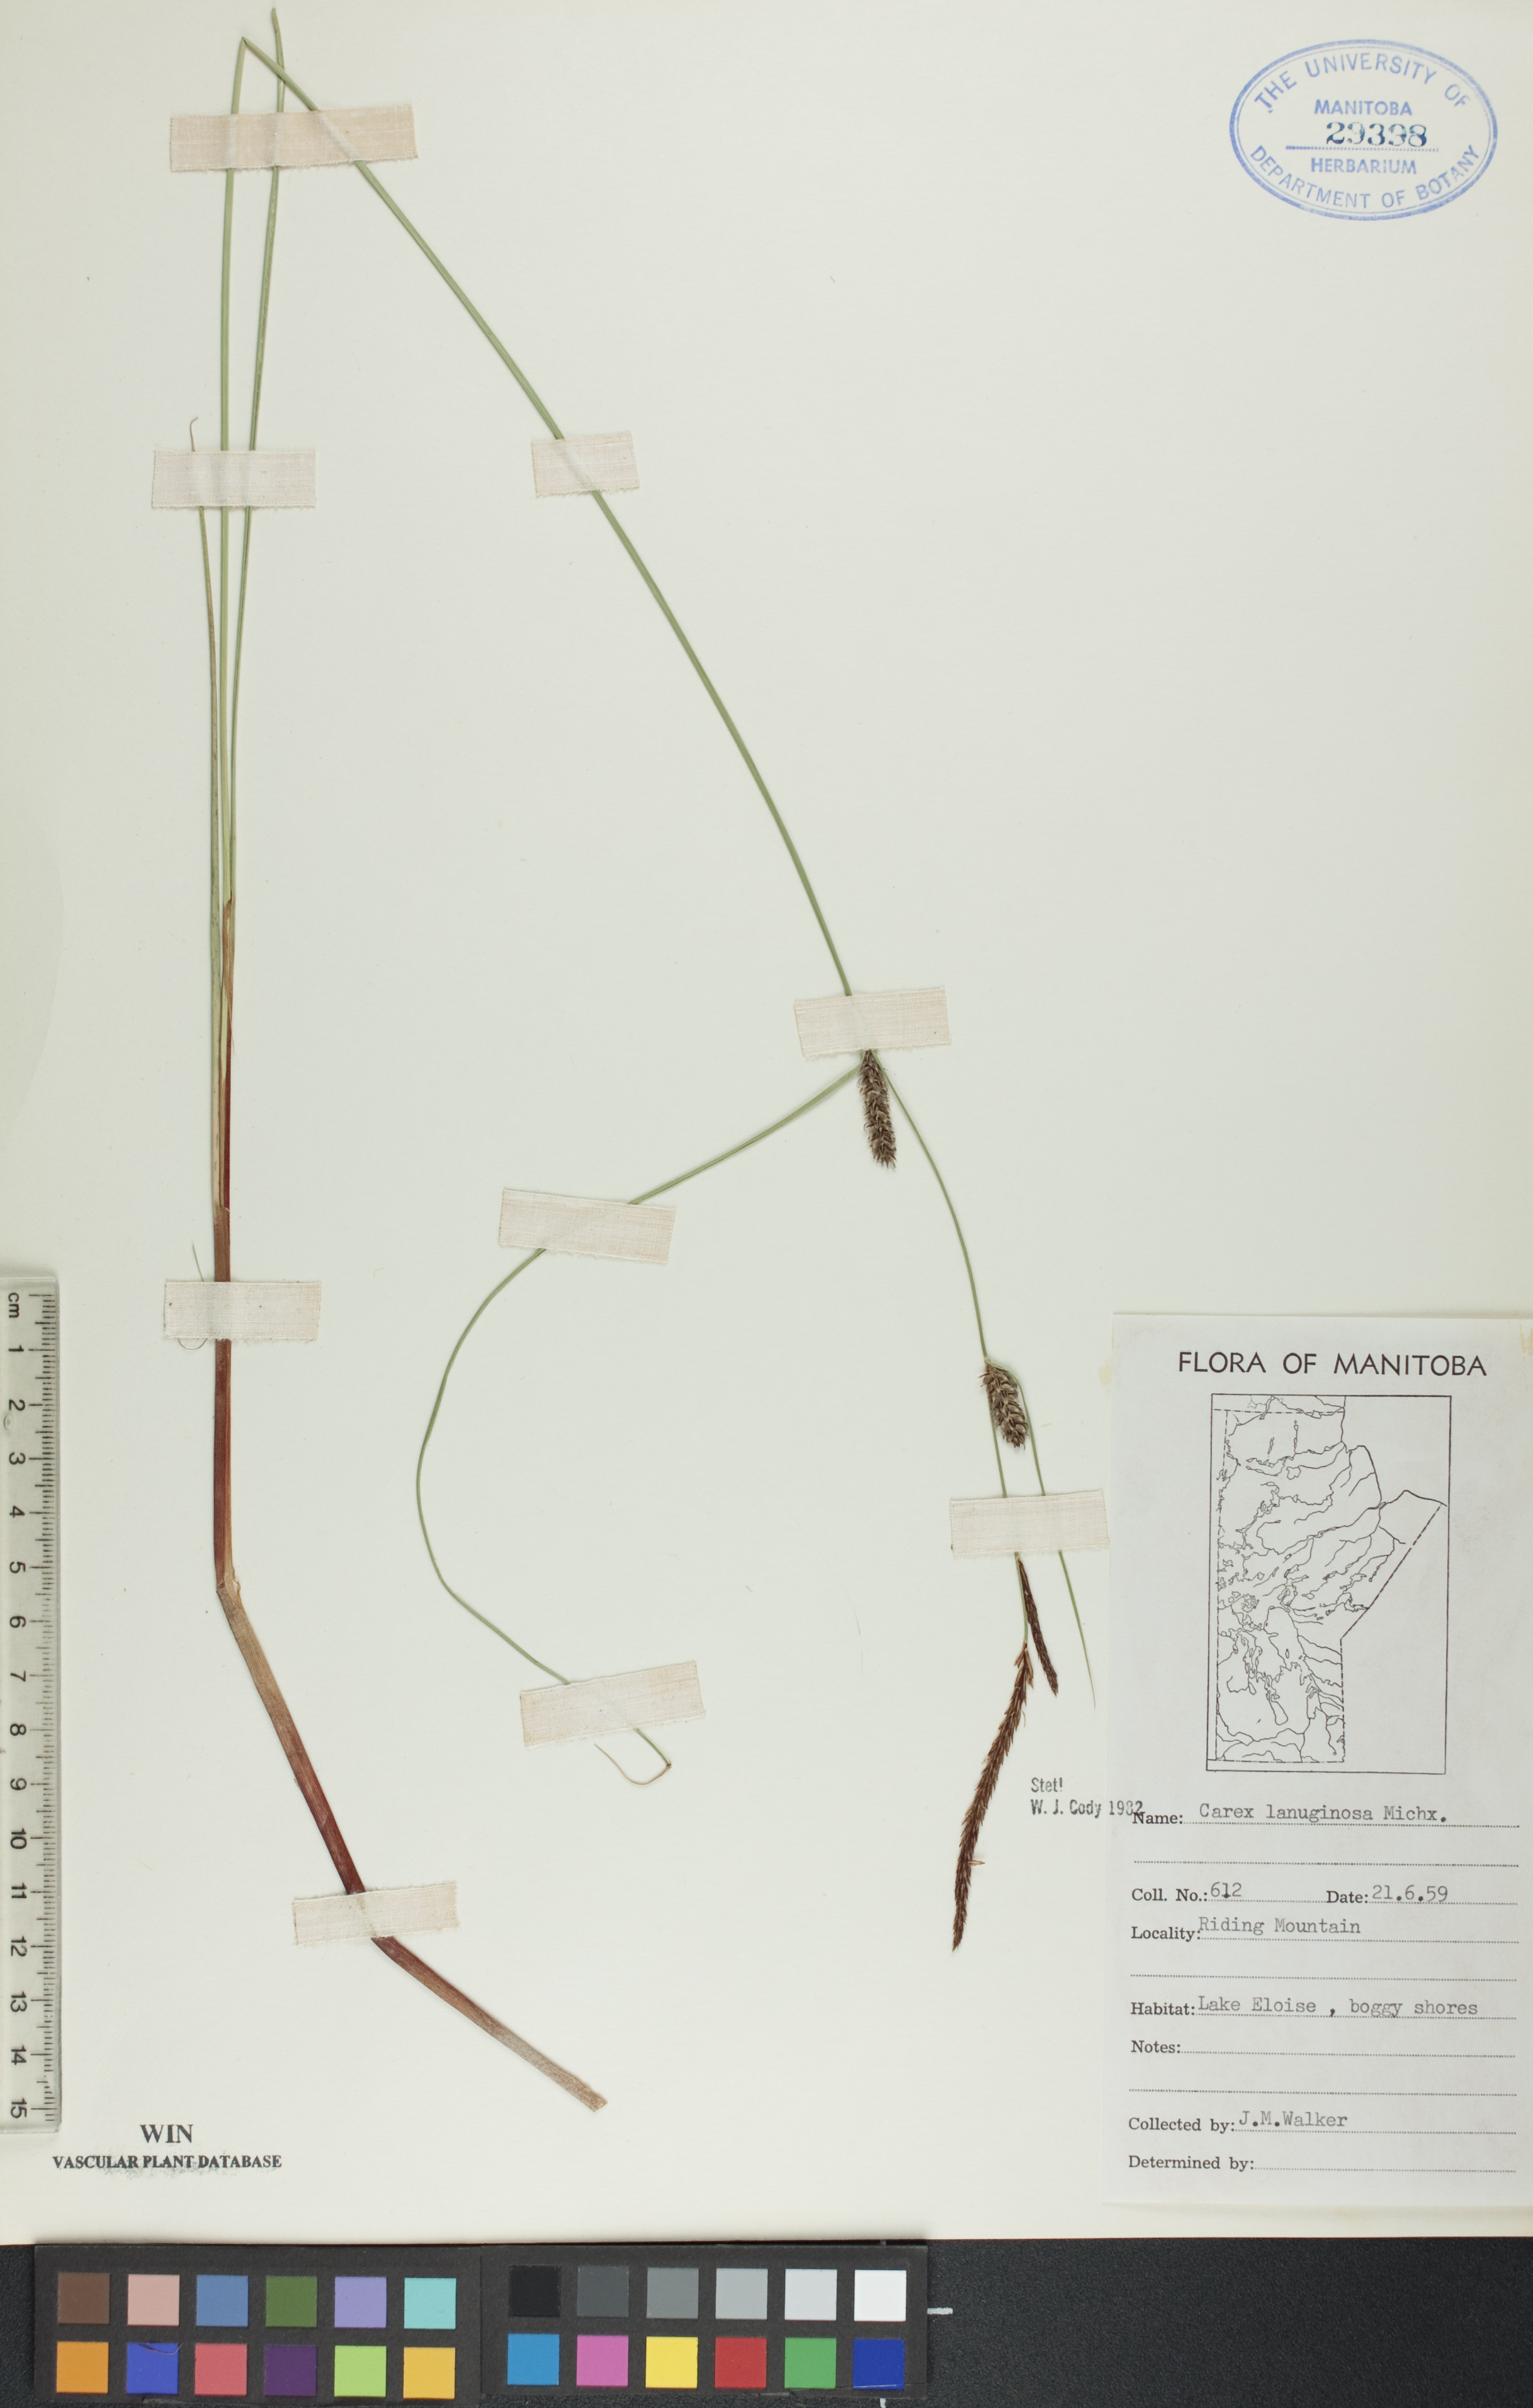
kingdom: Plantae
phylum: Tracheophyta
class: Liliopsida
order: Poales
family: Cyperaceae
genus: Carex
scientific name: Carex lasiocarpa
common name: Slender sedge
